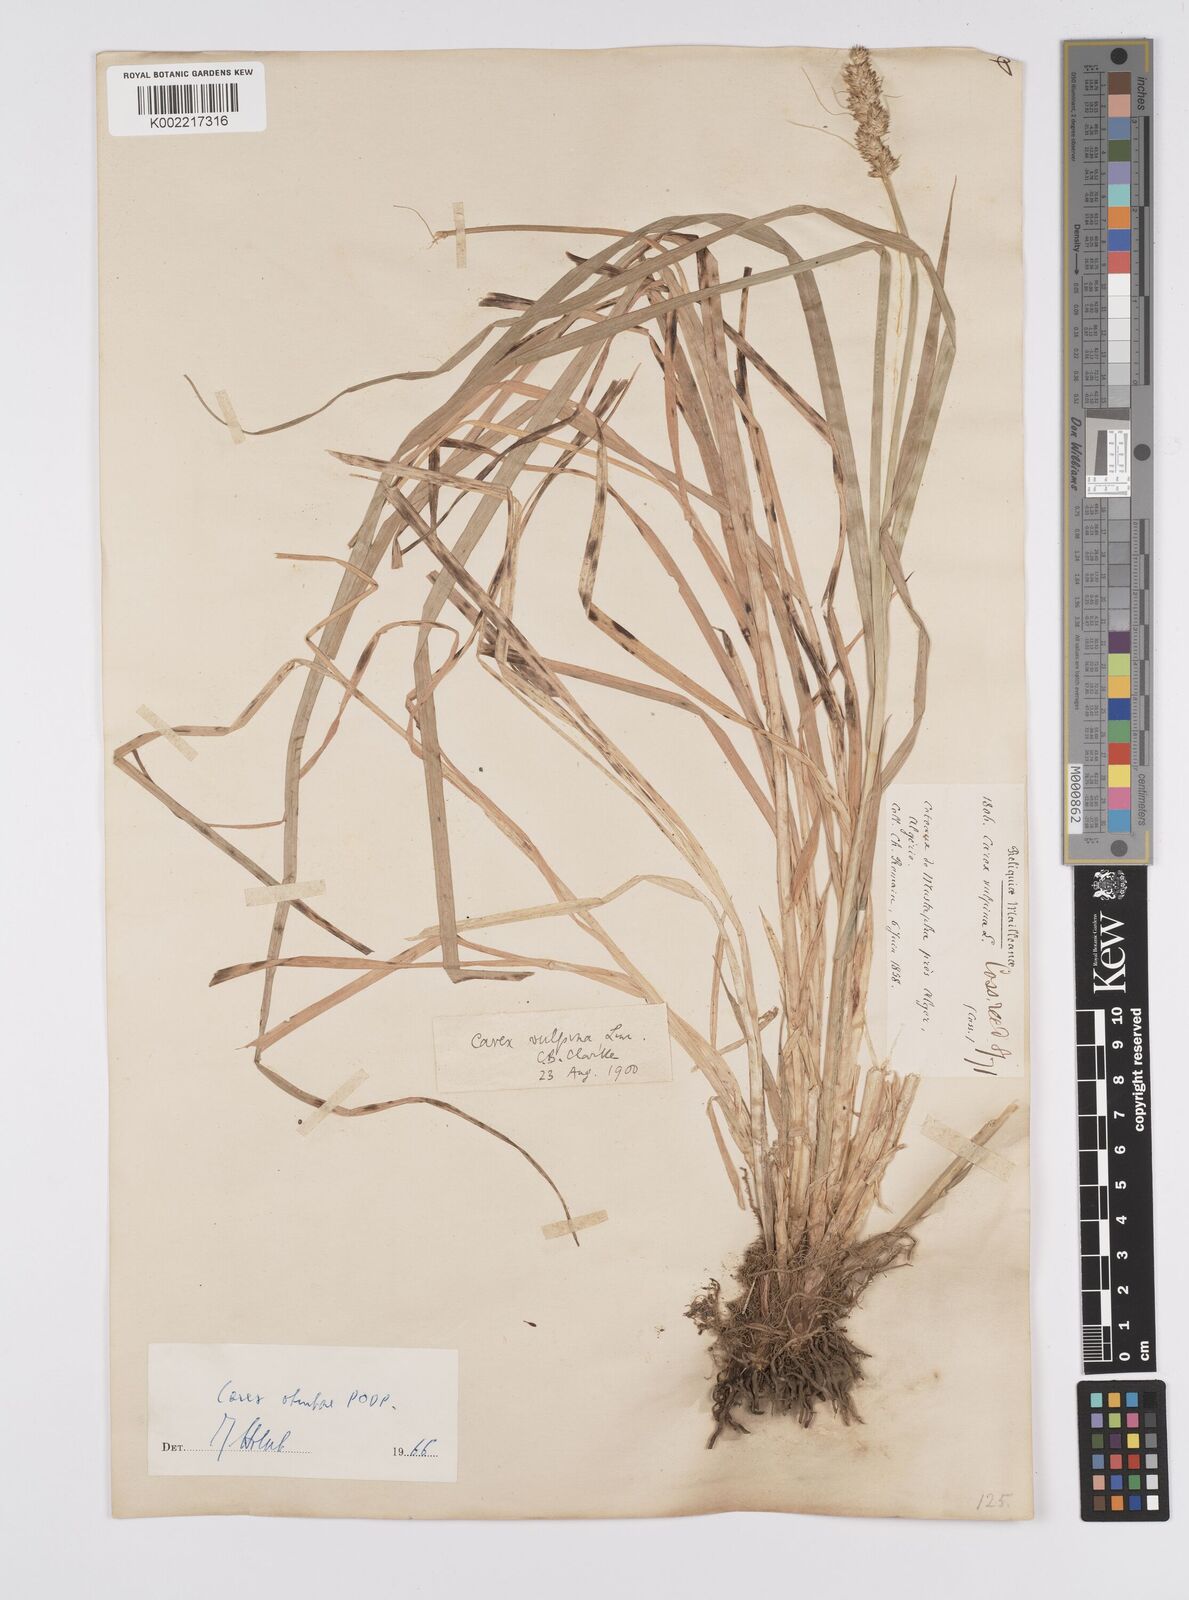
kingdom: Plantae
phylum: Tracheophyta
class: Liliopsida
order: Poales
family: Cyperaceae
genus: Carex
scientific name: Carex otrubae
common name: False fox-sedge
